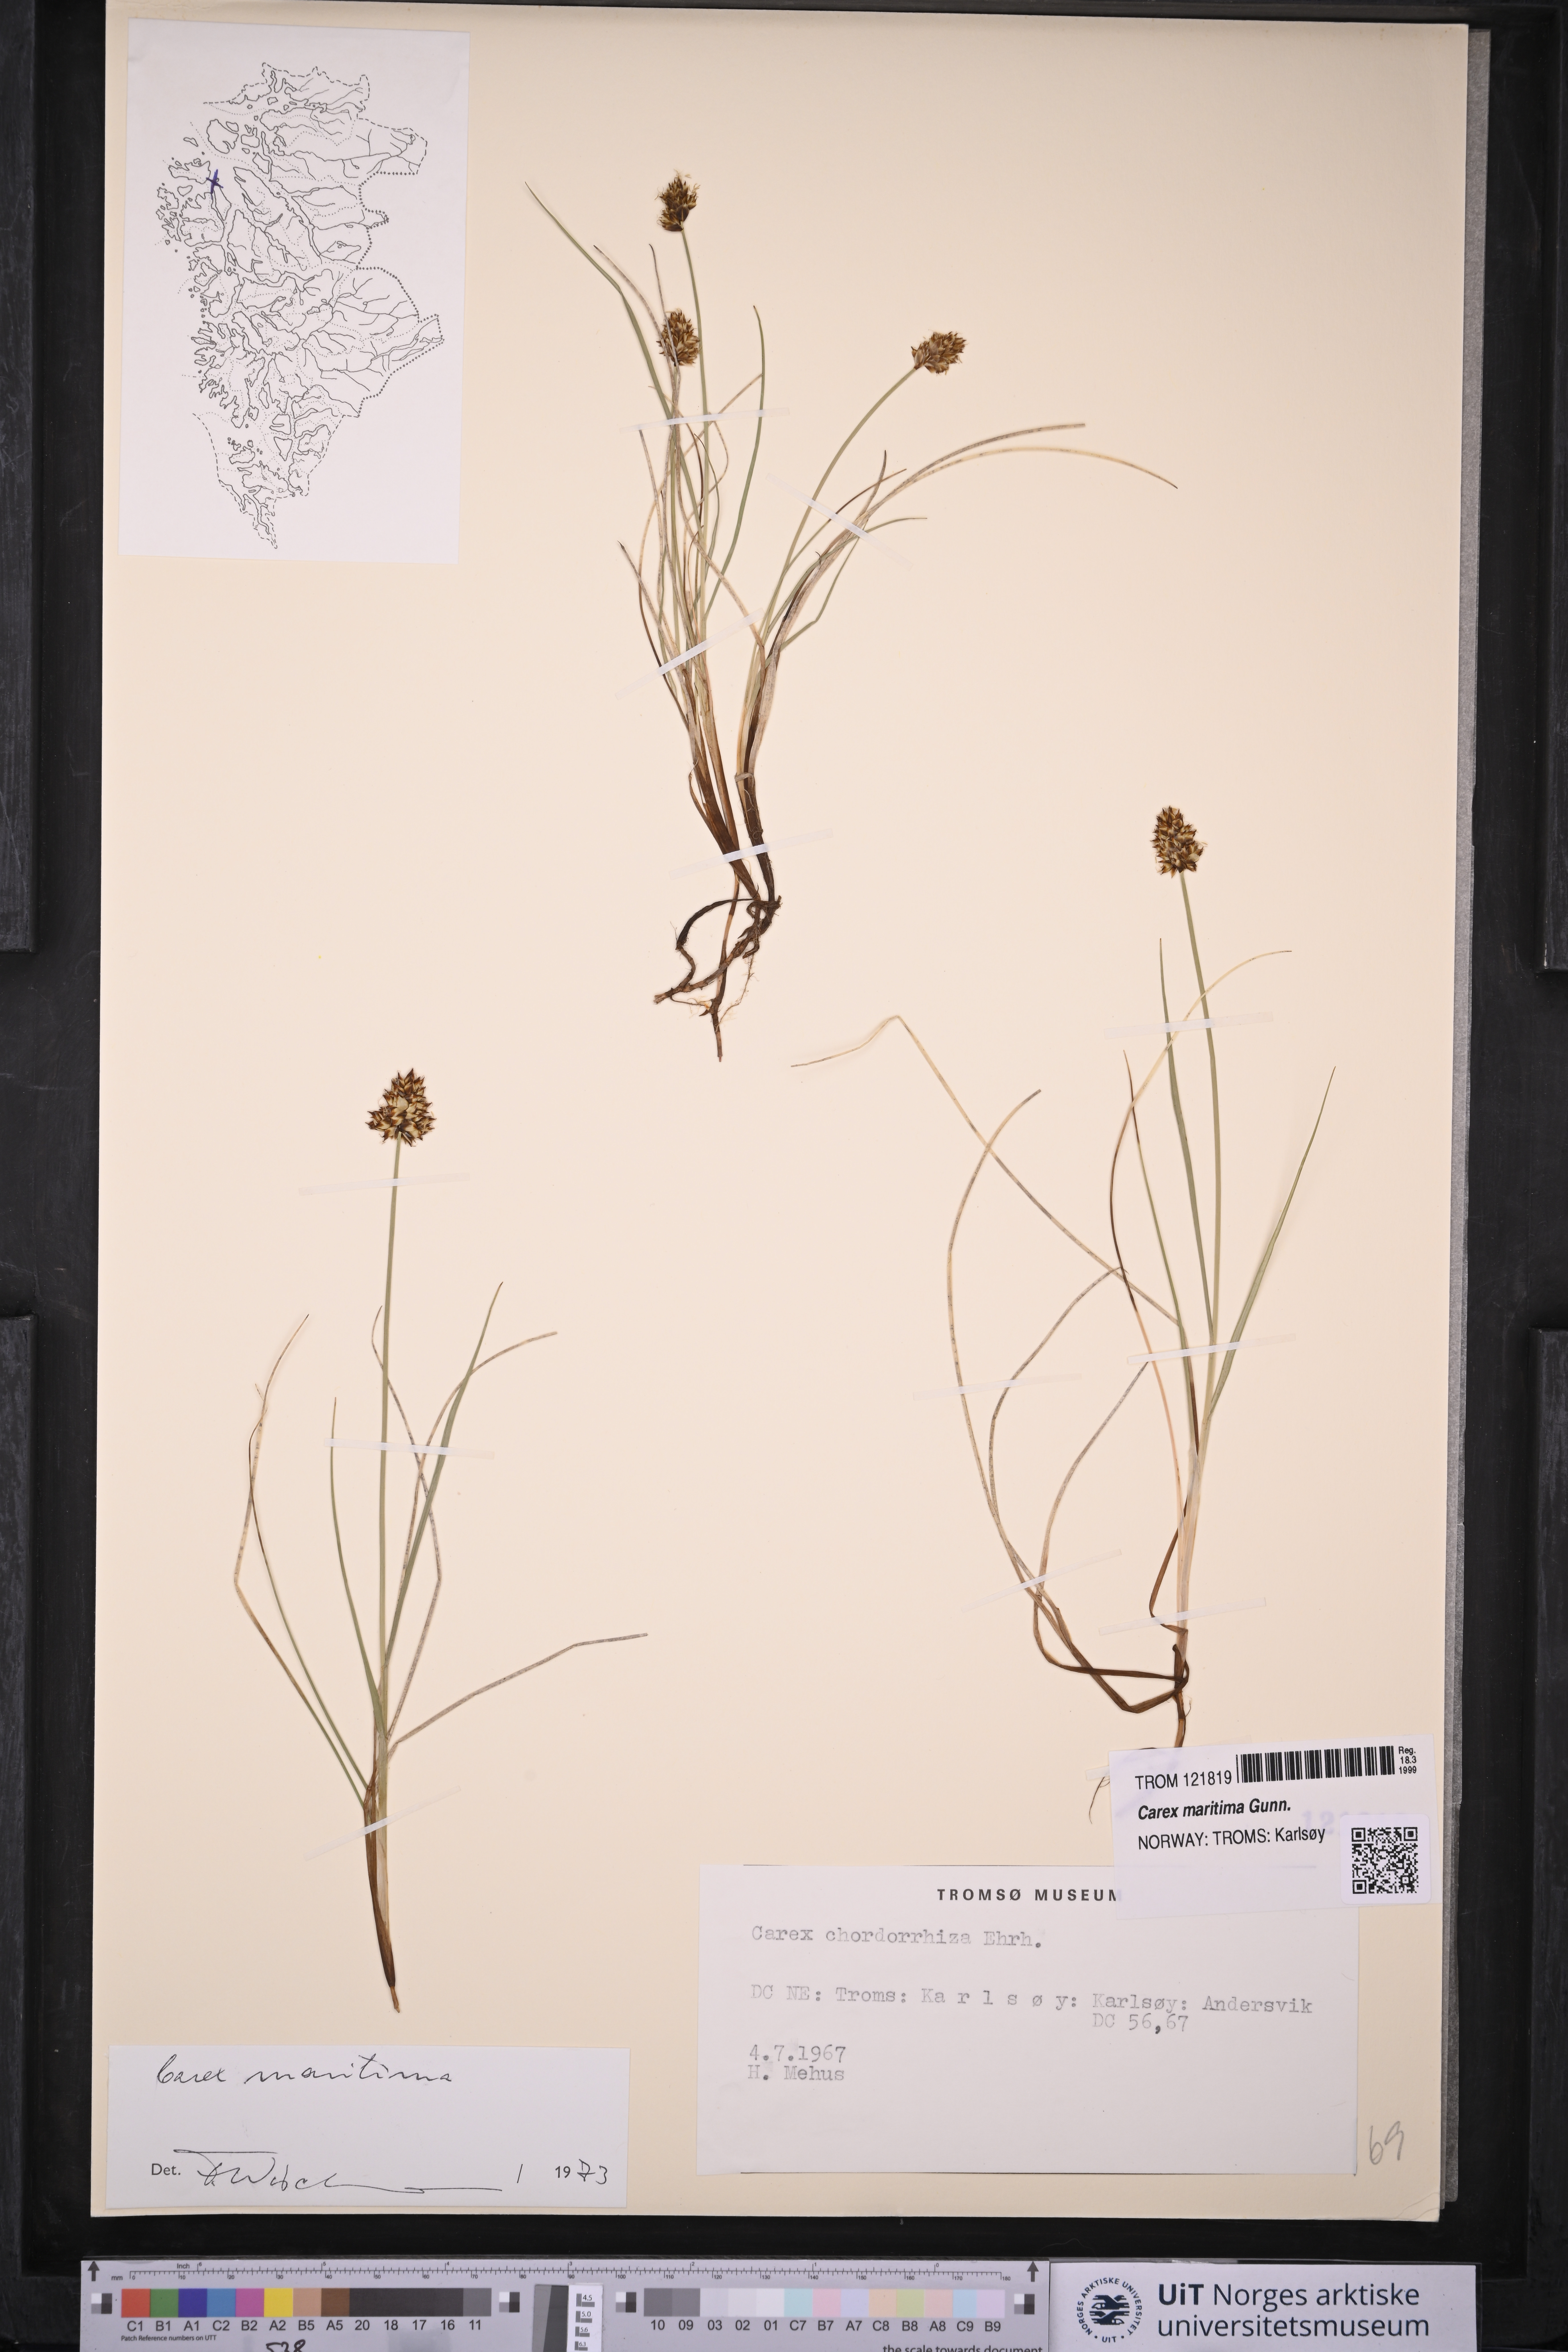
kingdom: Plantae
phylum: Tracheophyta
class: Liliopsida
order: Poales
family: Cyperaceae
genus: Carex
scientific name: Carex maritima
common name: Curved sedge
